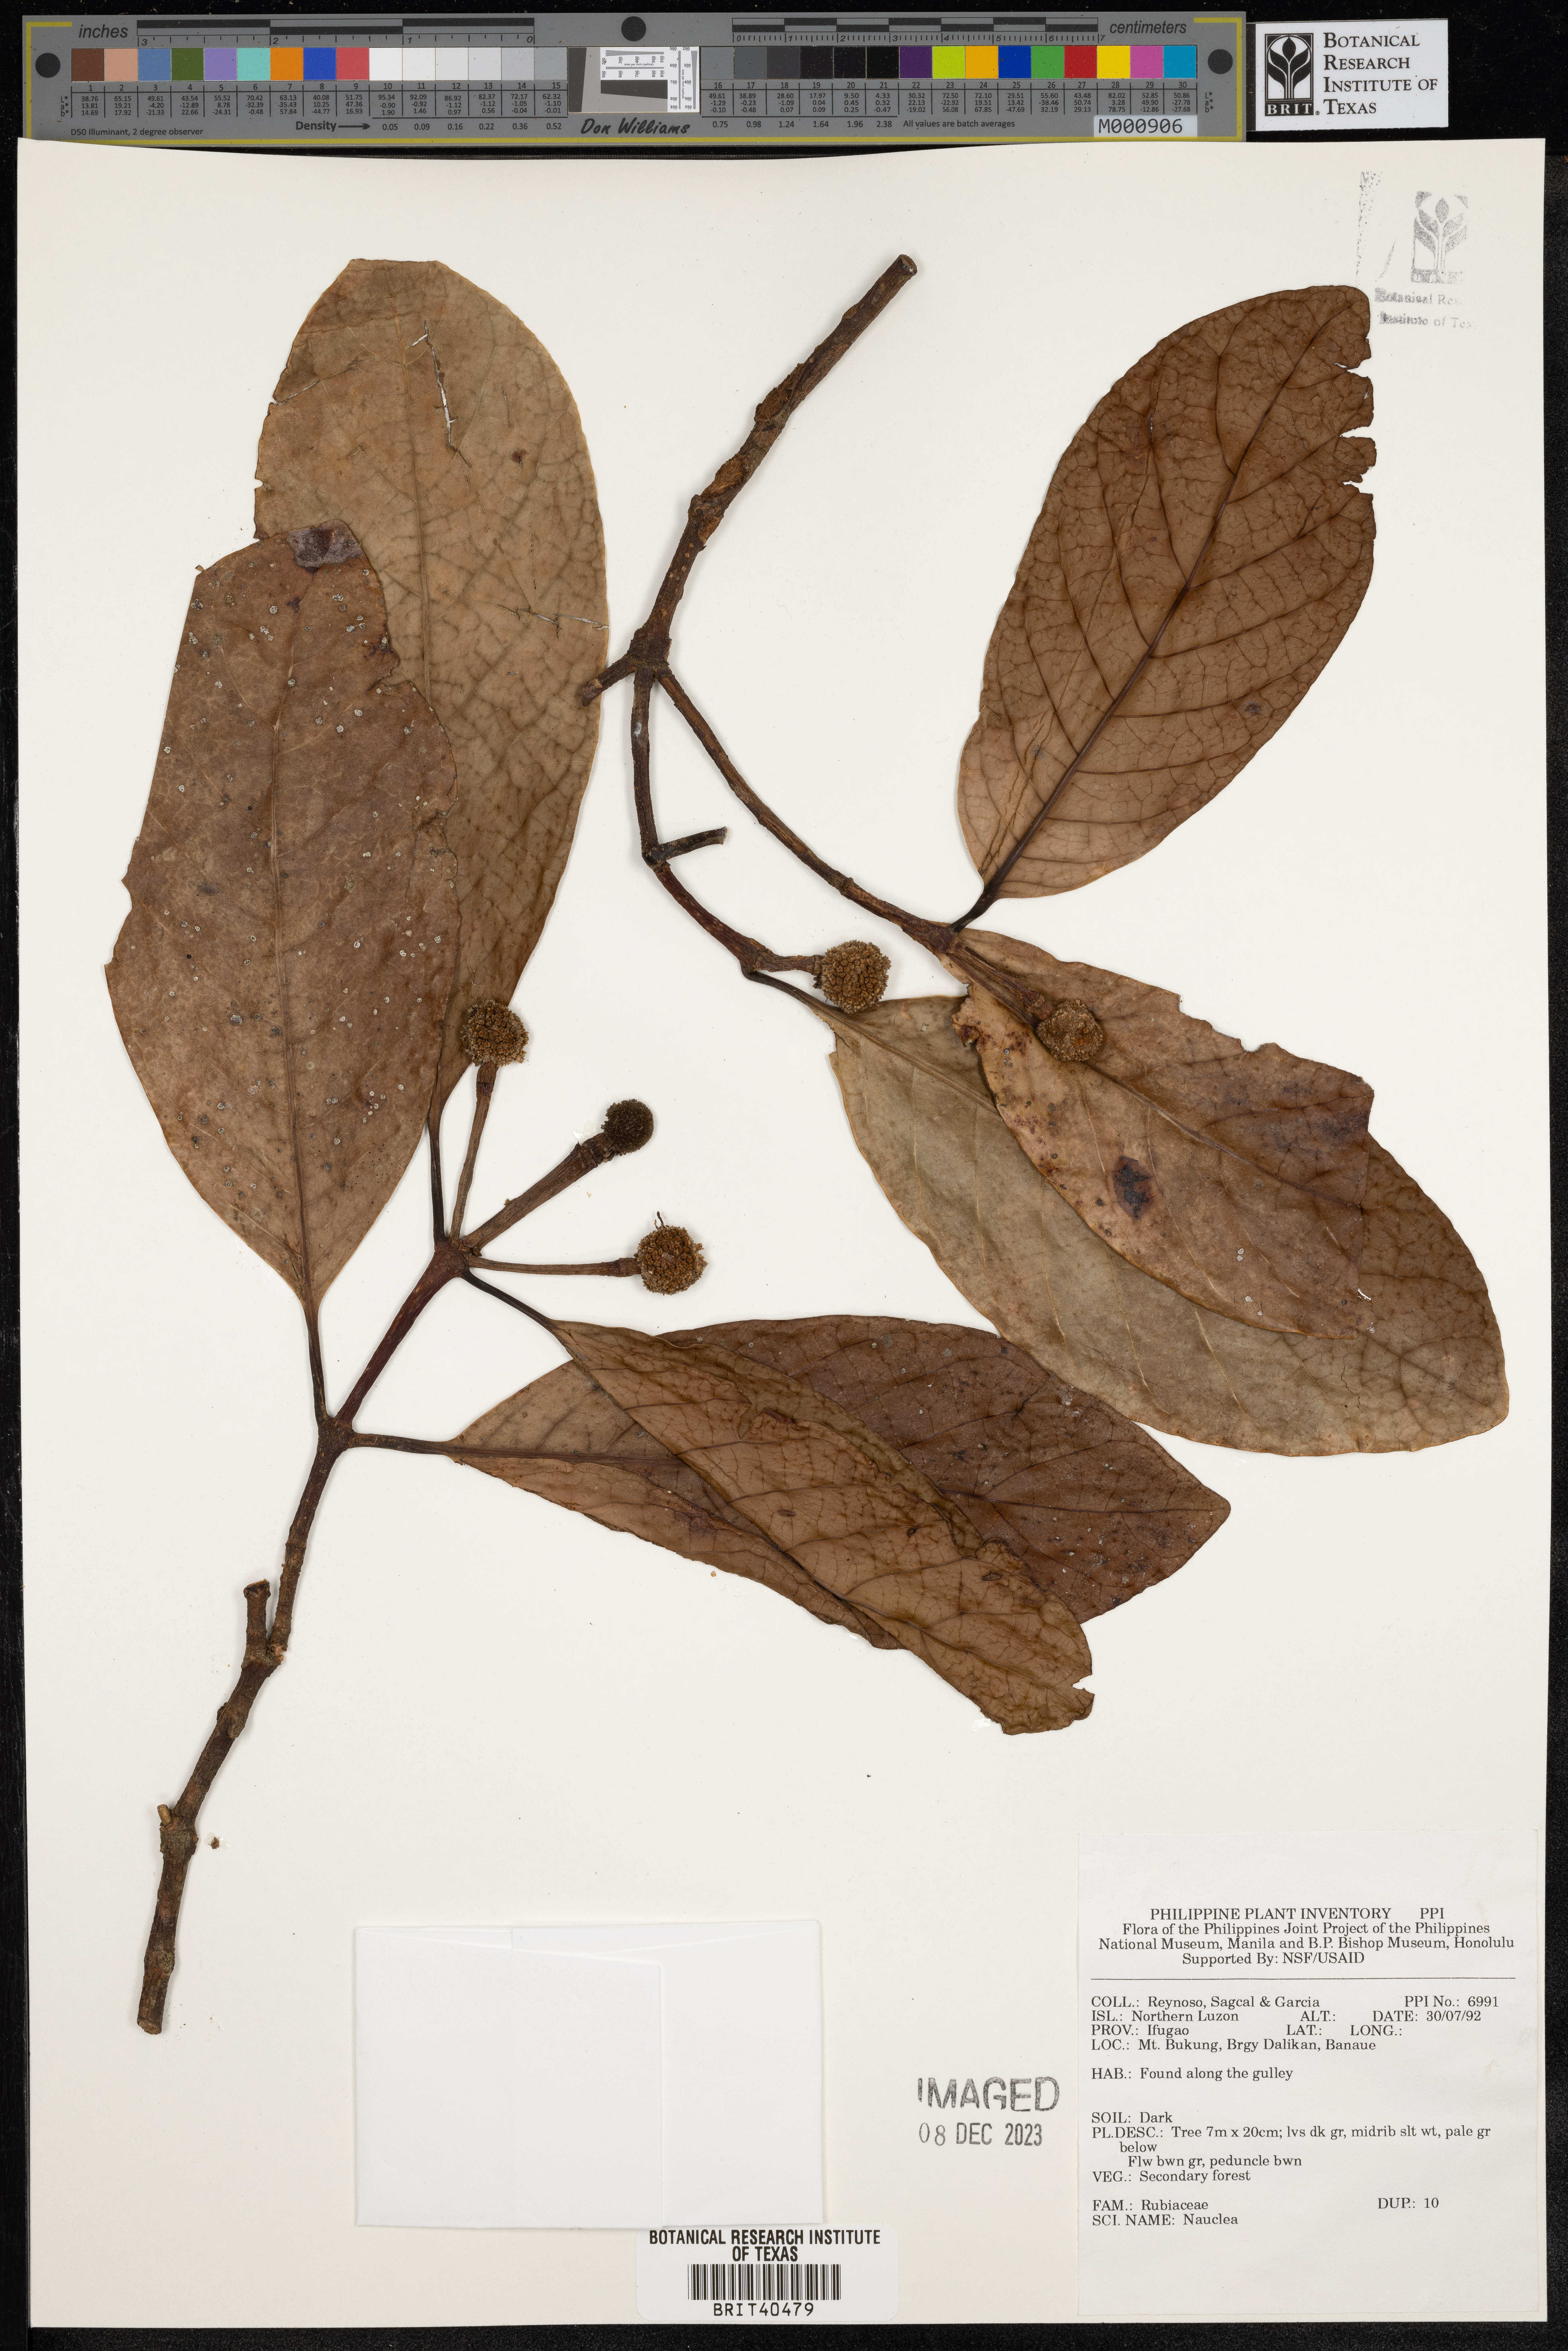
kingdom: Plantae
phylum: Tracheophyta
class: Magnoliopsida
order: Gentianales
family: Rubiaceae
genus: Nauclea
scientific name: Nauclea
